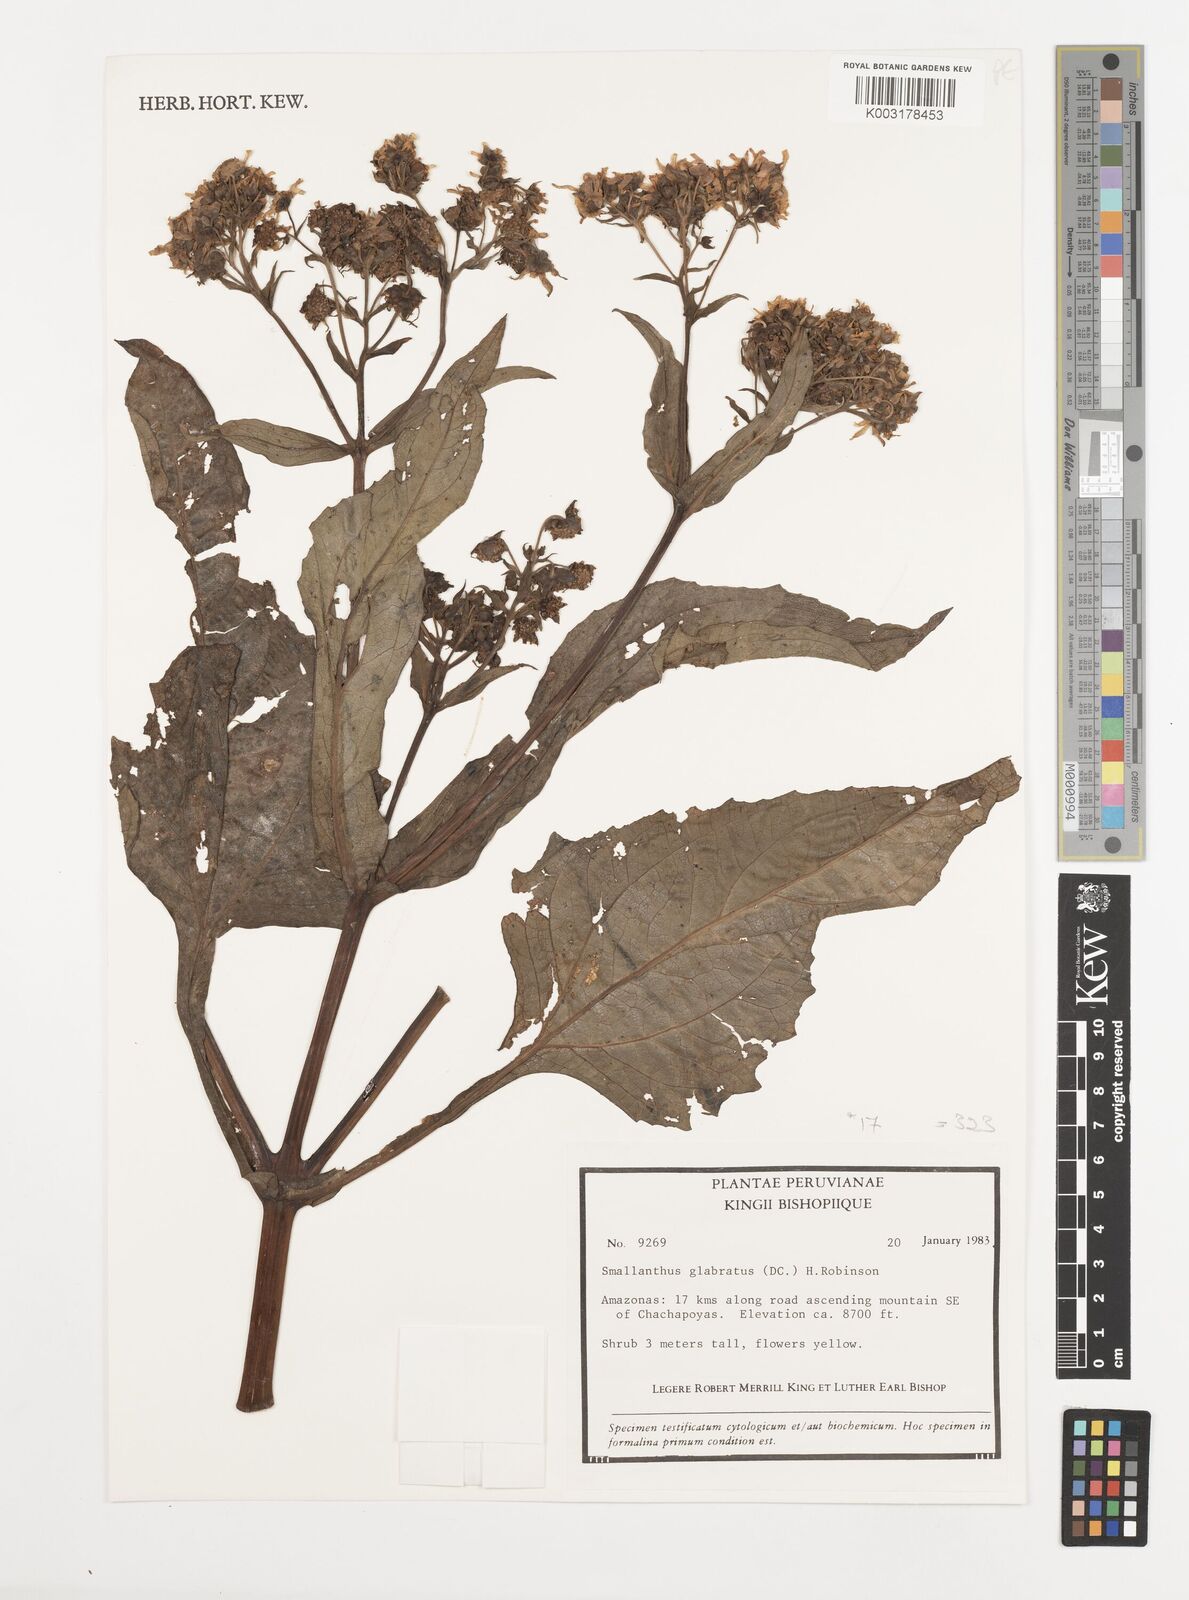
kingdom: Plantae
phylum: Tracheophyta
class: Magnoliopsida
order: Asterales
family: Asteraceae
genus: Smallanthus
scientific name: Smallanthus glabratus
